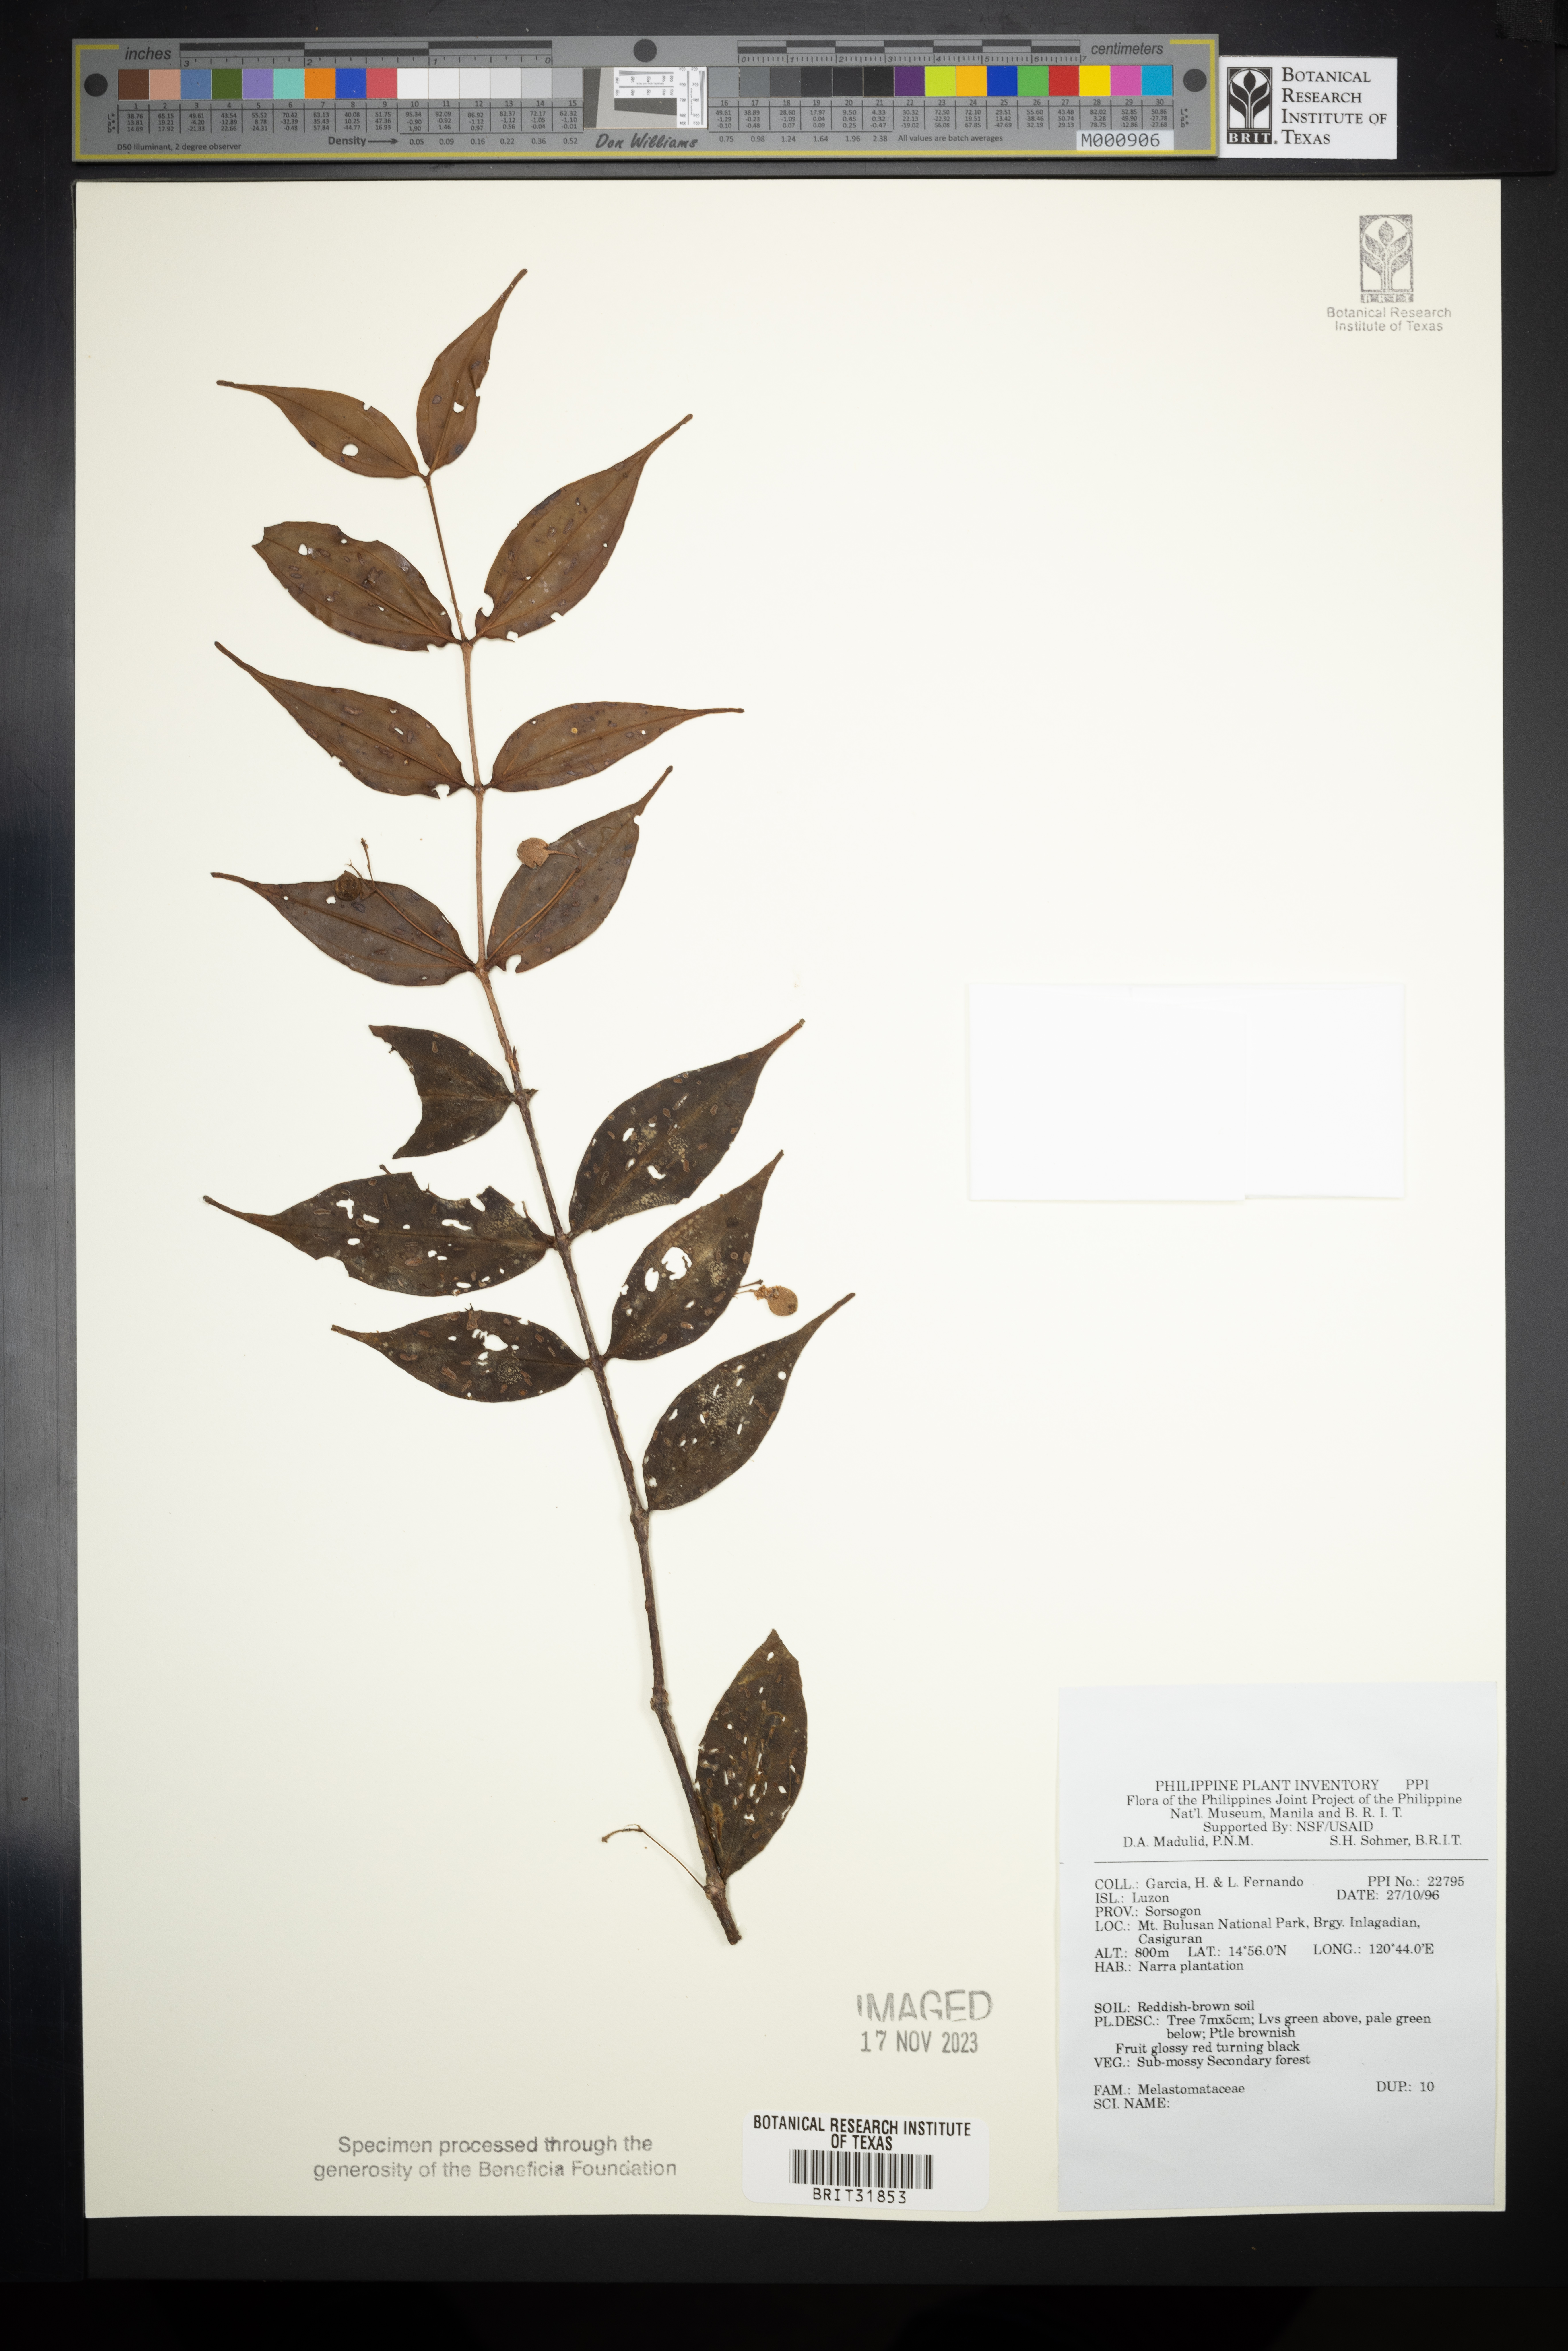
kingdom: Plantae
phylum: Tracheophyta
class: Magnoliopsida
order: Myrtales
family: Melastomataceae
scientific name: Melastomataceae
